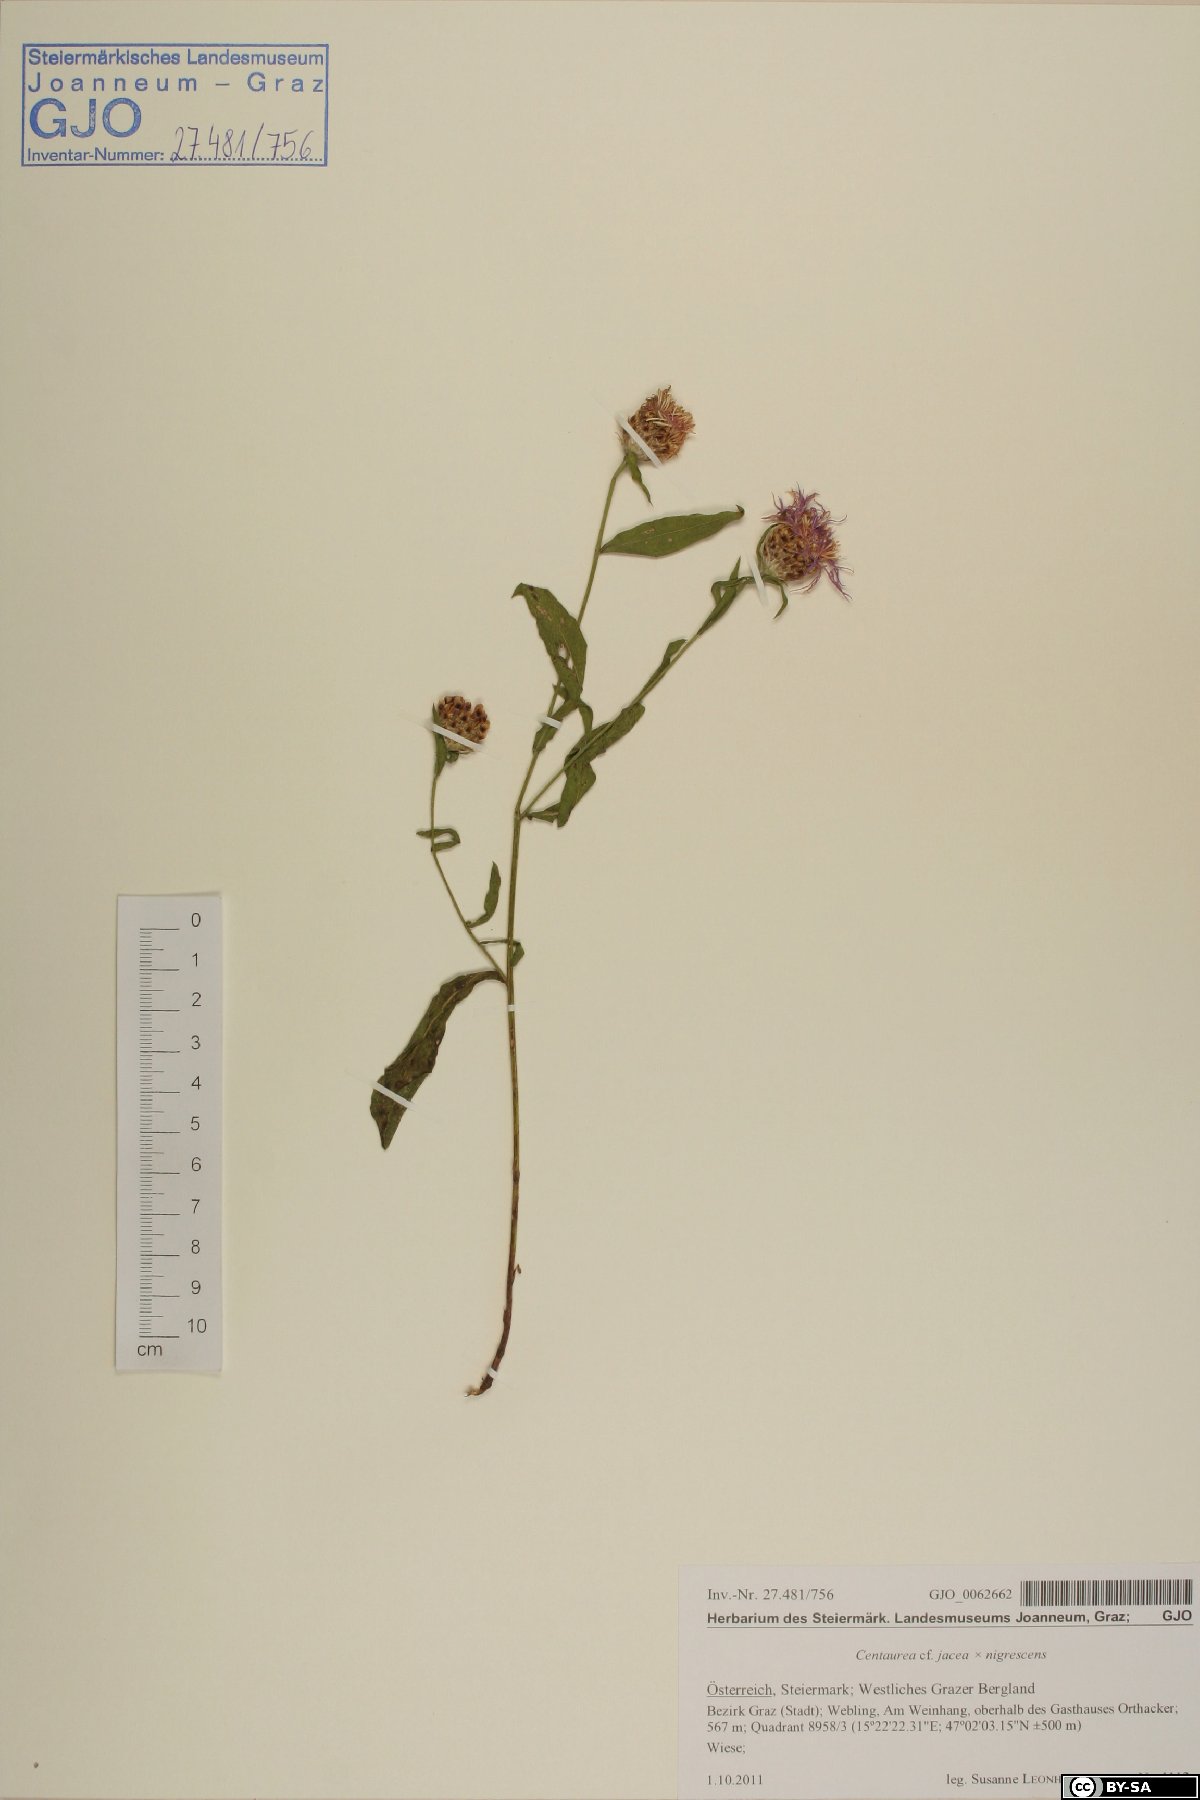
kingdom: Plantae
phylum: Tracheophyta
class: Magnoliopsida
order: Asterales
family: Asteraceae
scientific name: Asteraceae
